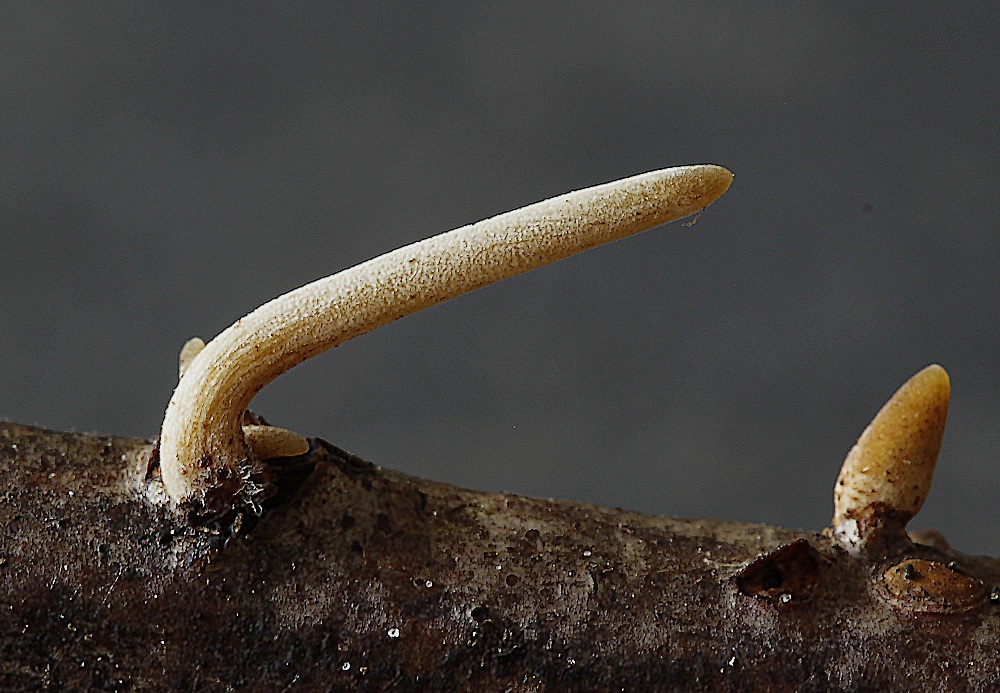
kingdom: Fungi
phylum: Basidiomycota
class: Agaricomycetes
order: Agaricales
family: Typhulaceae
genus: Macrotyphula
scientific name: Macrotyphula
